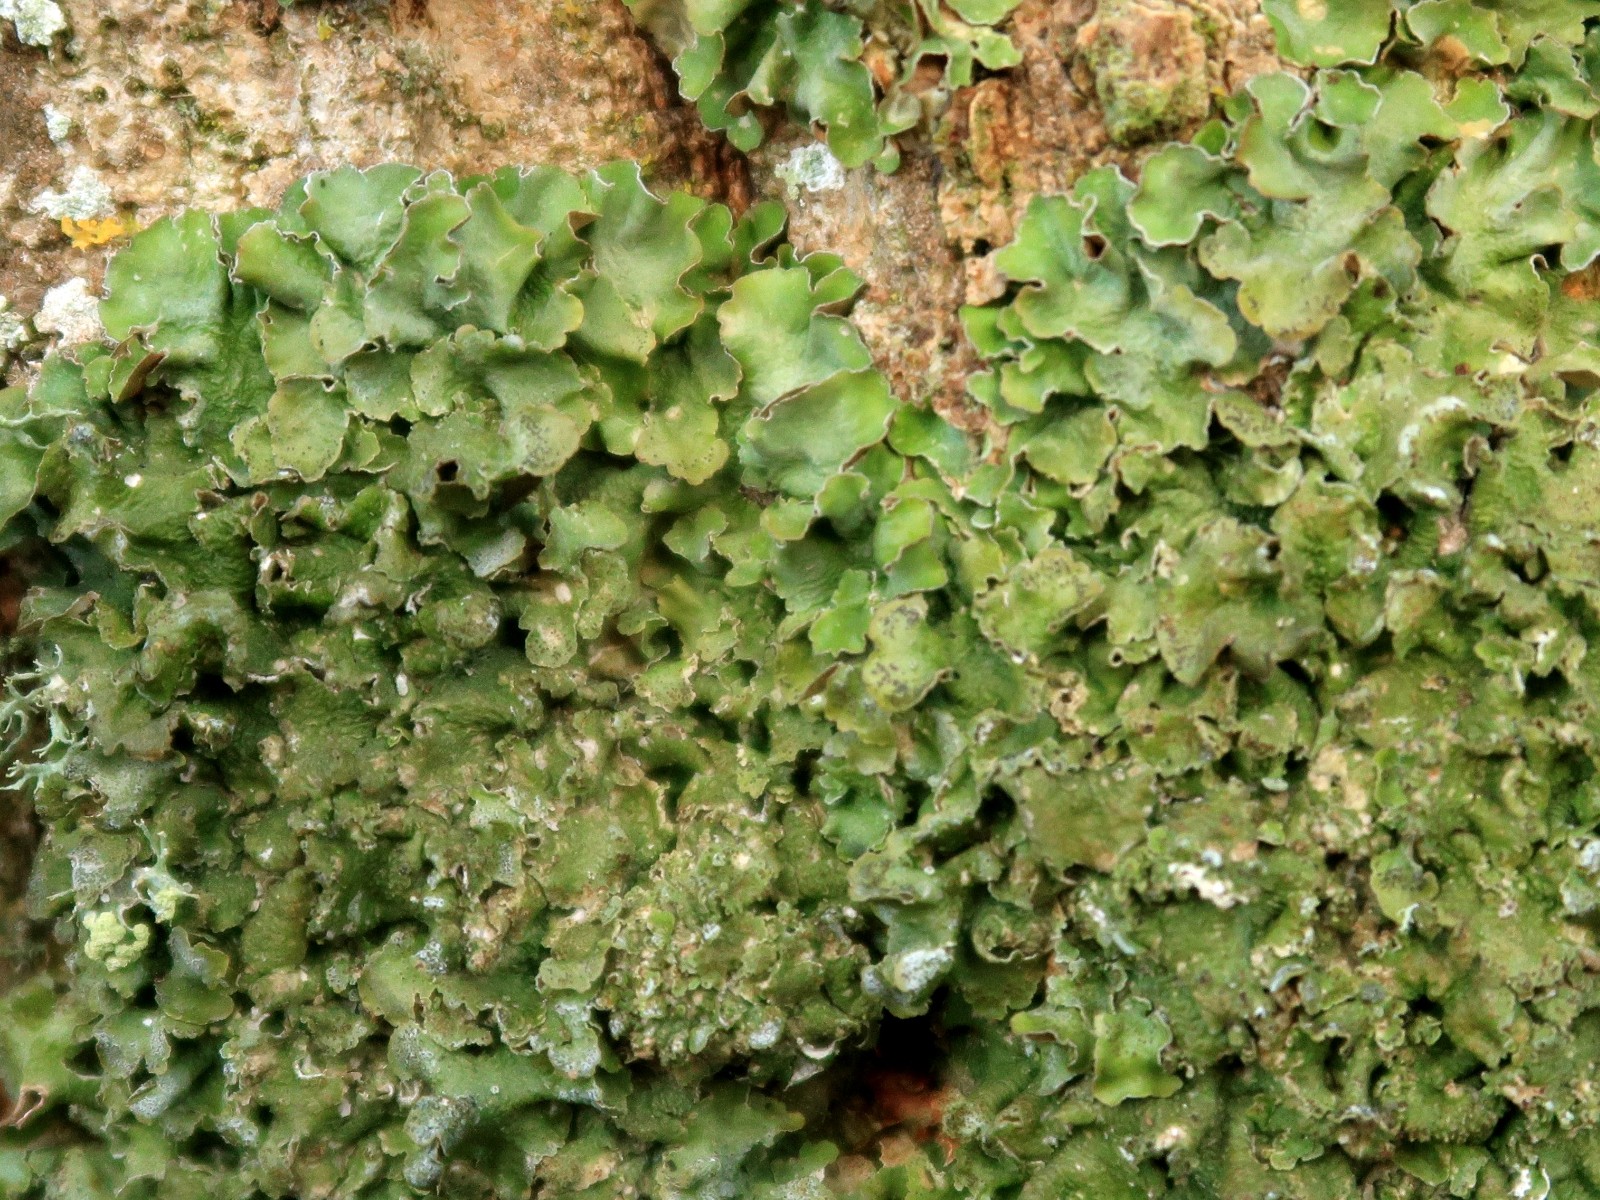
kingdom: Fungi
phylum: Ascomycota
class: Lecanoromycetes
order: Lecanorales
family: Parmeliaceae
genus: Pleurosticta
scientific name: Pleurosticta acetabulum
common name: stor skållav
